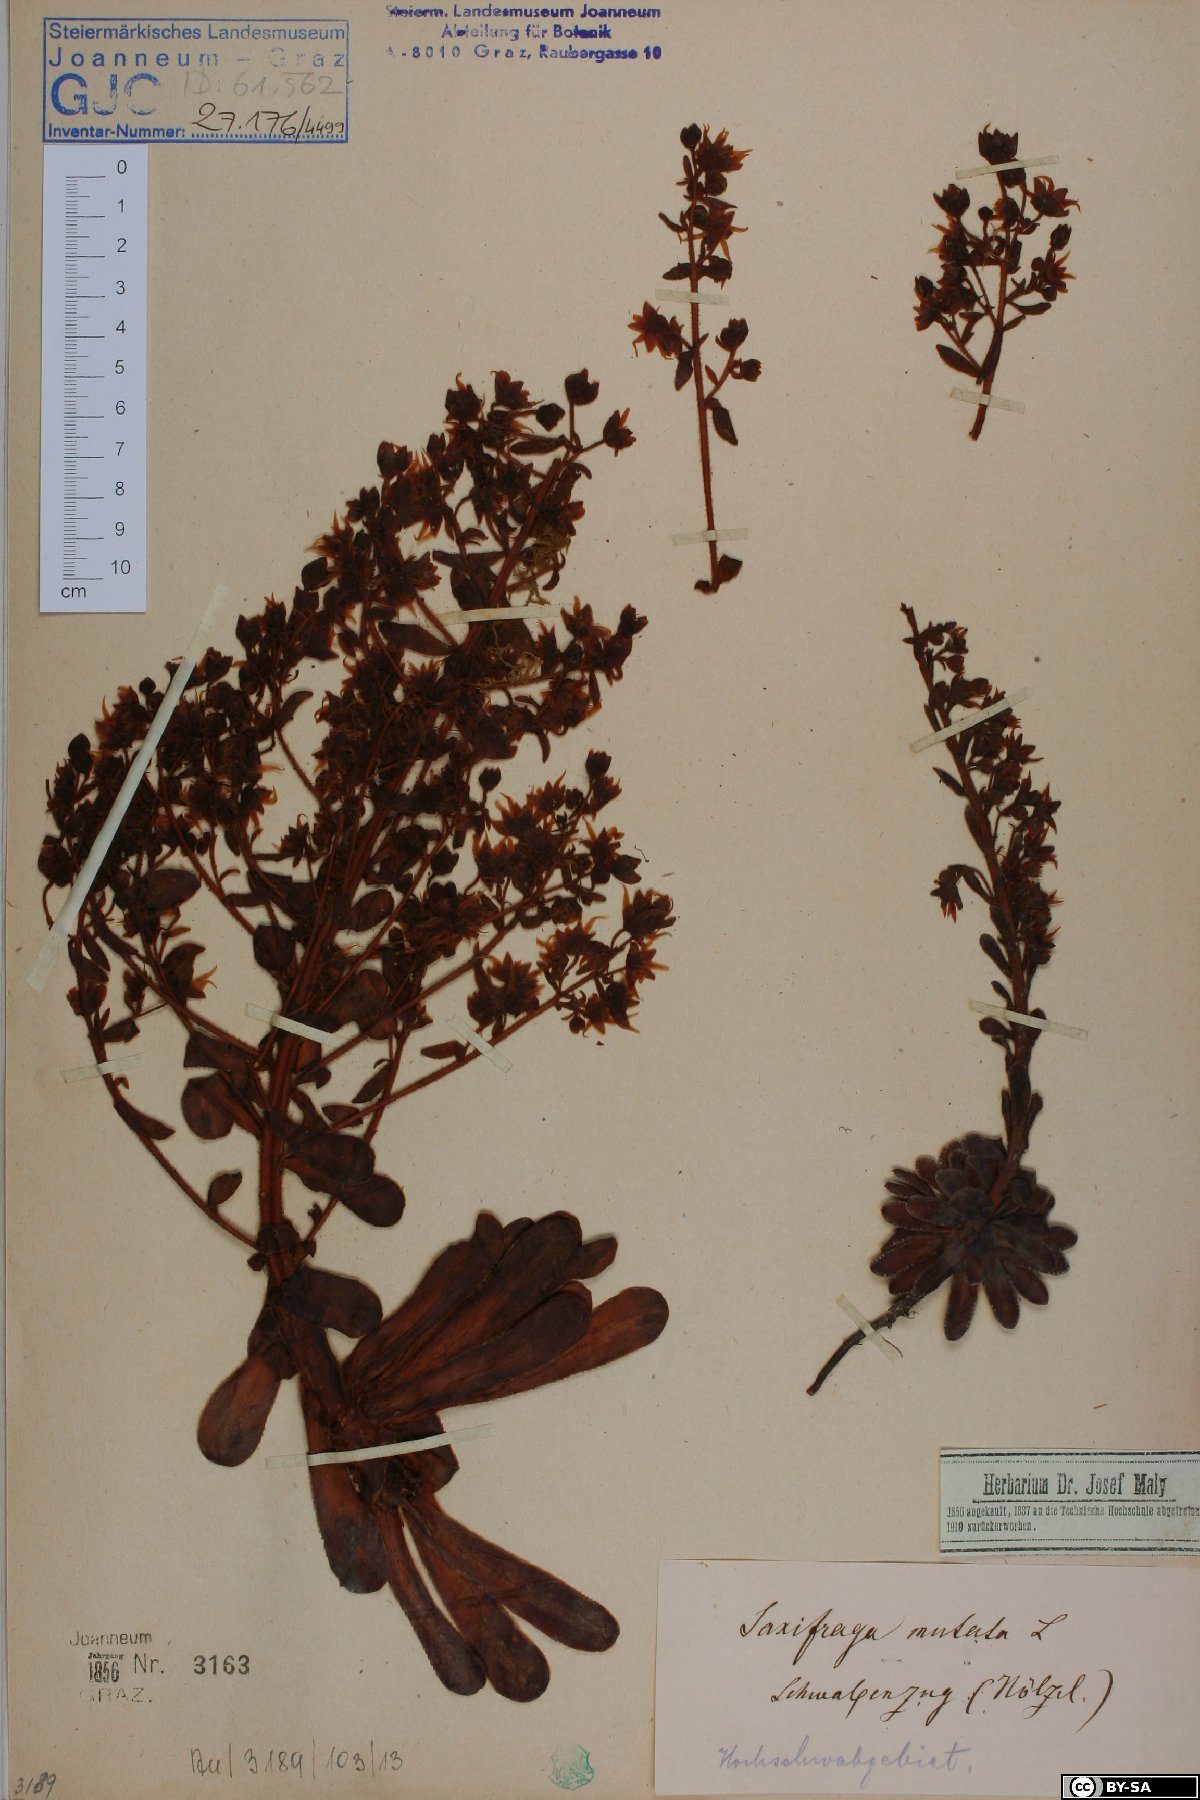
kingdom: Plantae
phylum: Tracheophyta
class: Magnoliopsida
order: Saxifragales
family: Saxifragaceae
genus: Saxifraga
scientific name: Saxifraga mutata
